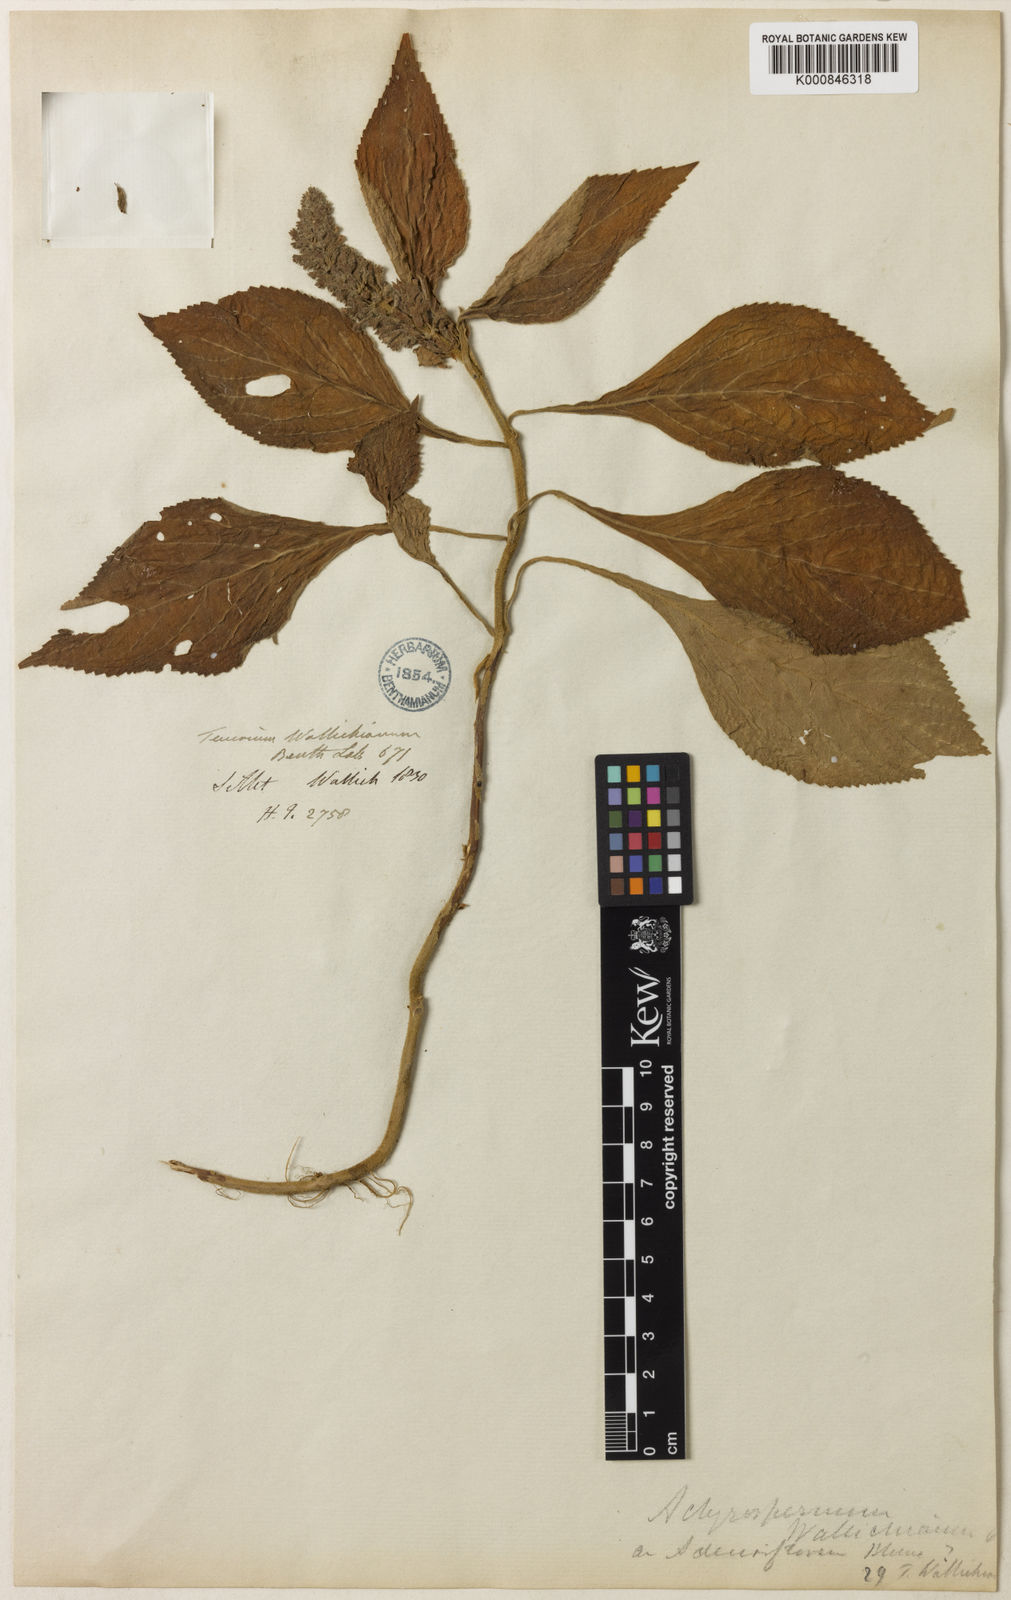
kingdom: Plantae
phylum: Tracheophyta
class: Magnoliopsida
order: Lamiales
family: Lamiaceae
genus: Achyrospermum
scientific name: Achyrospermum densiflorum
